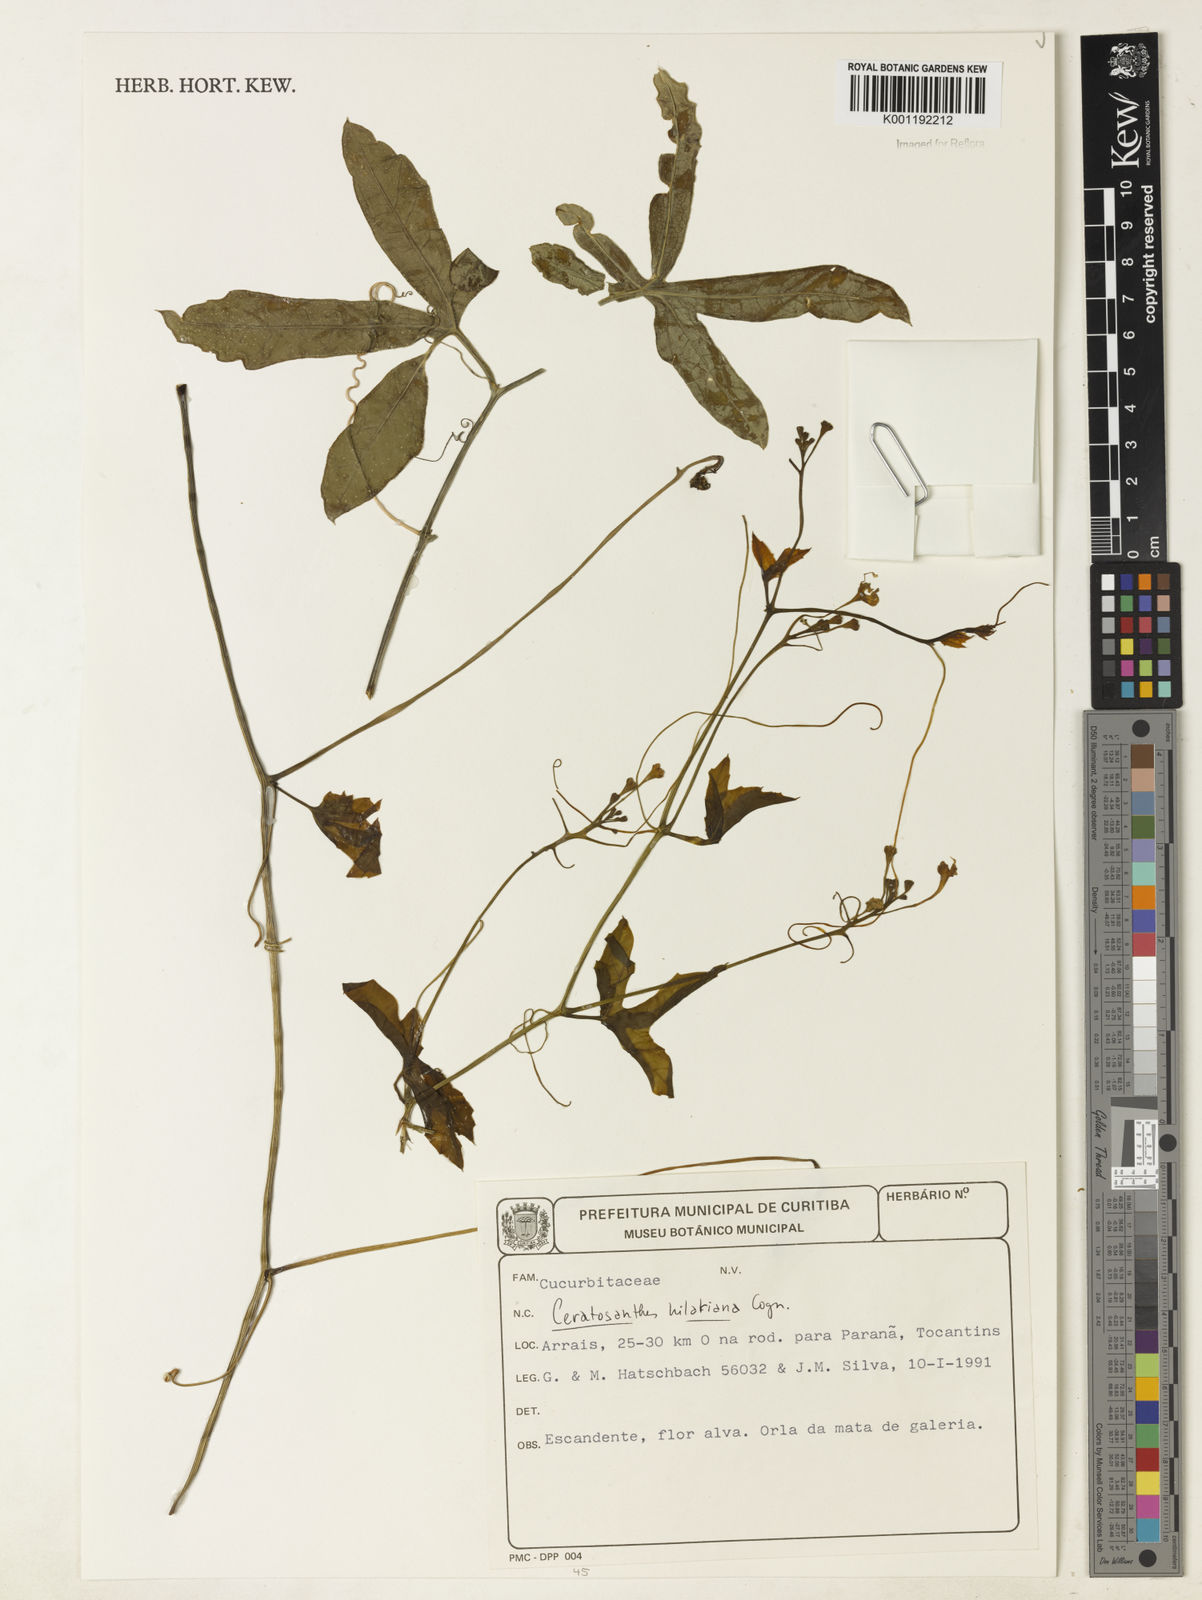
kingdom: Plantae
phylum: Tracheophyta
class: Magnoliopsida
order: Cucurbitales
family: Cucurbitaceae
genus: Ceratosanthes
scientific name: Ceratosanthes hilariana
